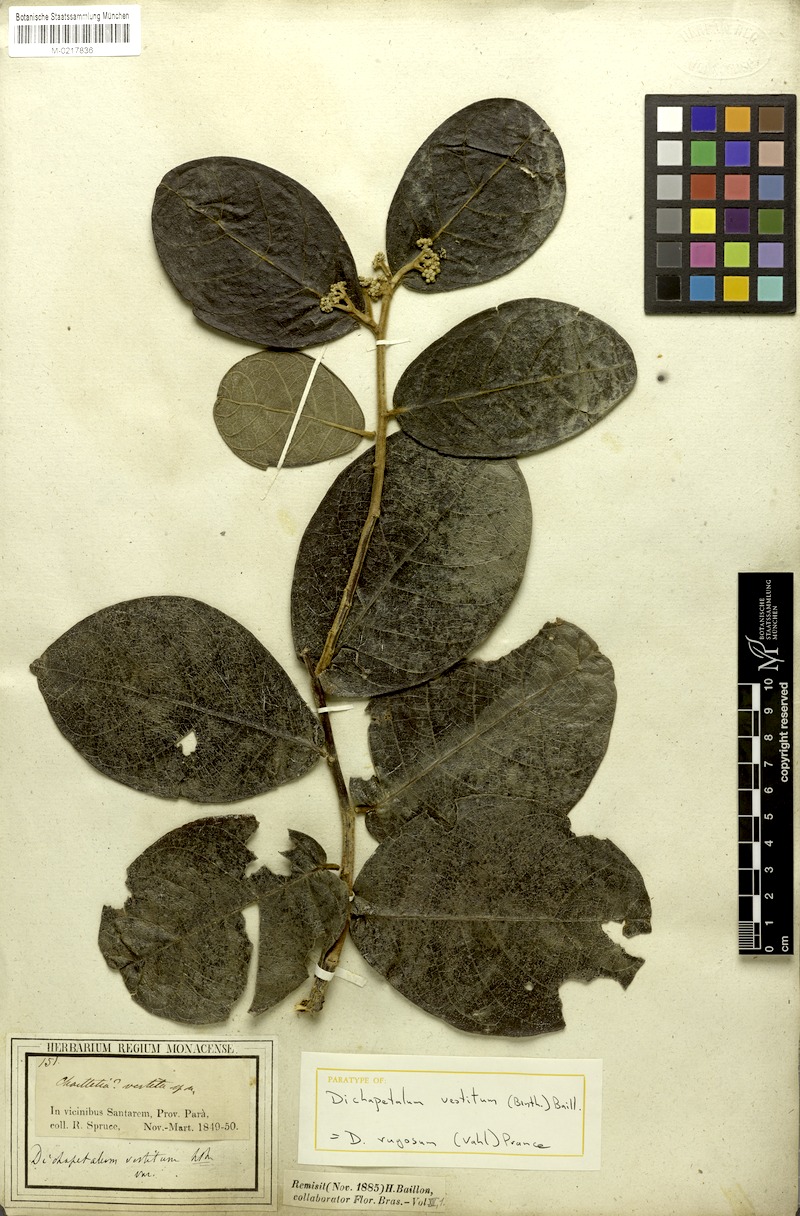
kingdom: Plantae
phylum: Tracheophyta
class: Magnoliopsida
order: Malpighiales
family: Dichapetalaceae
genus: Dichapetalum
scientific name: Dichapetalum rugosum
